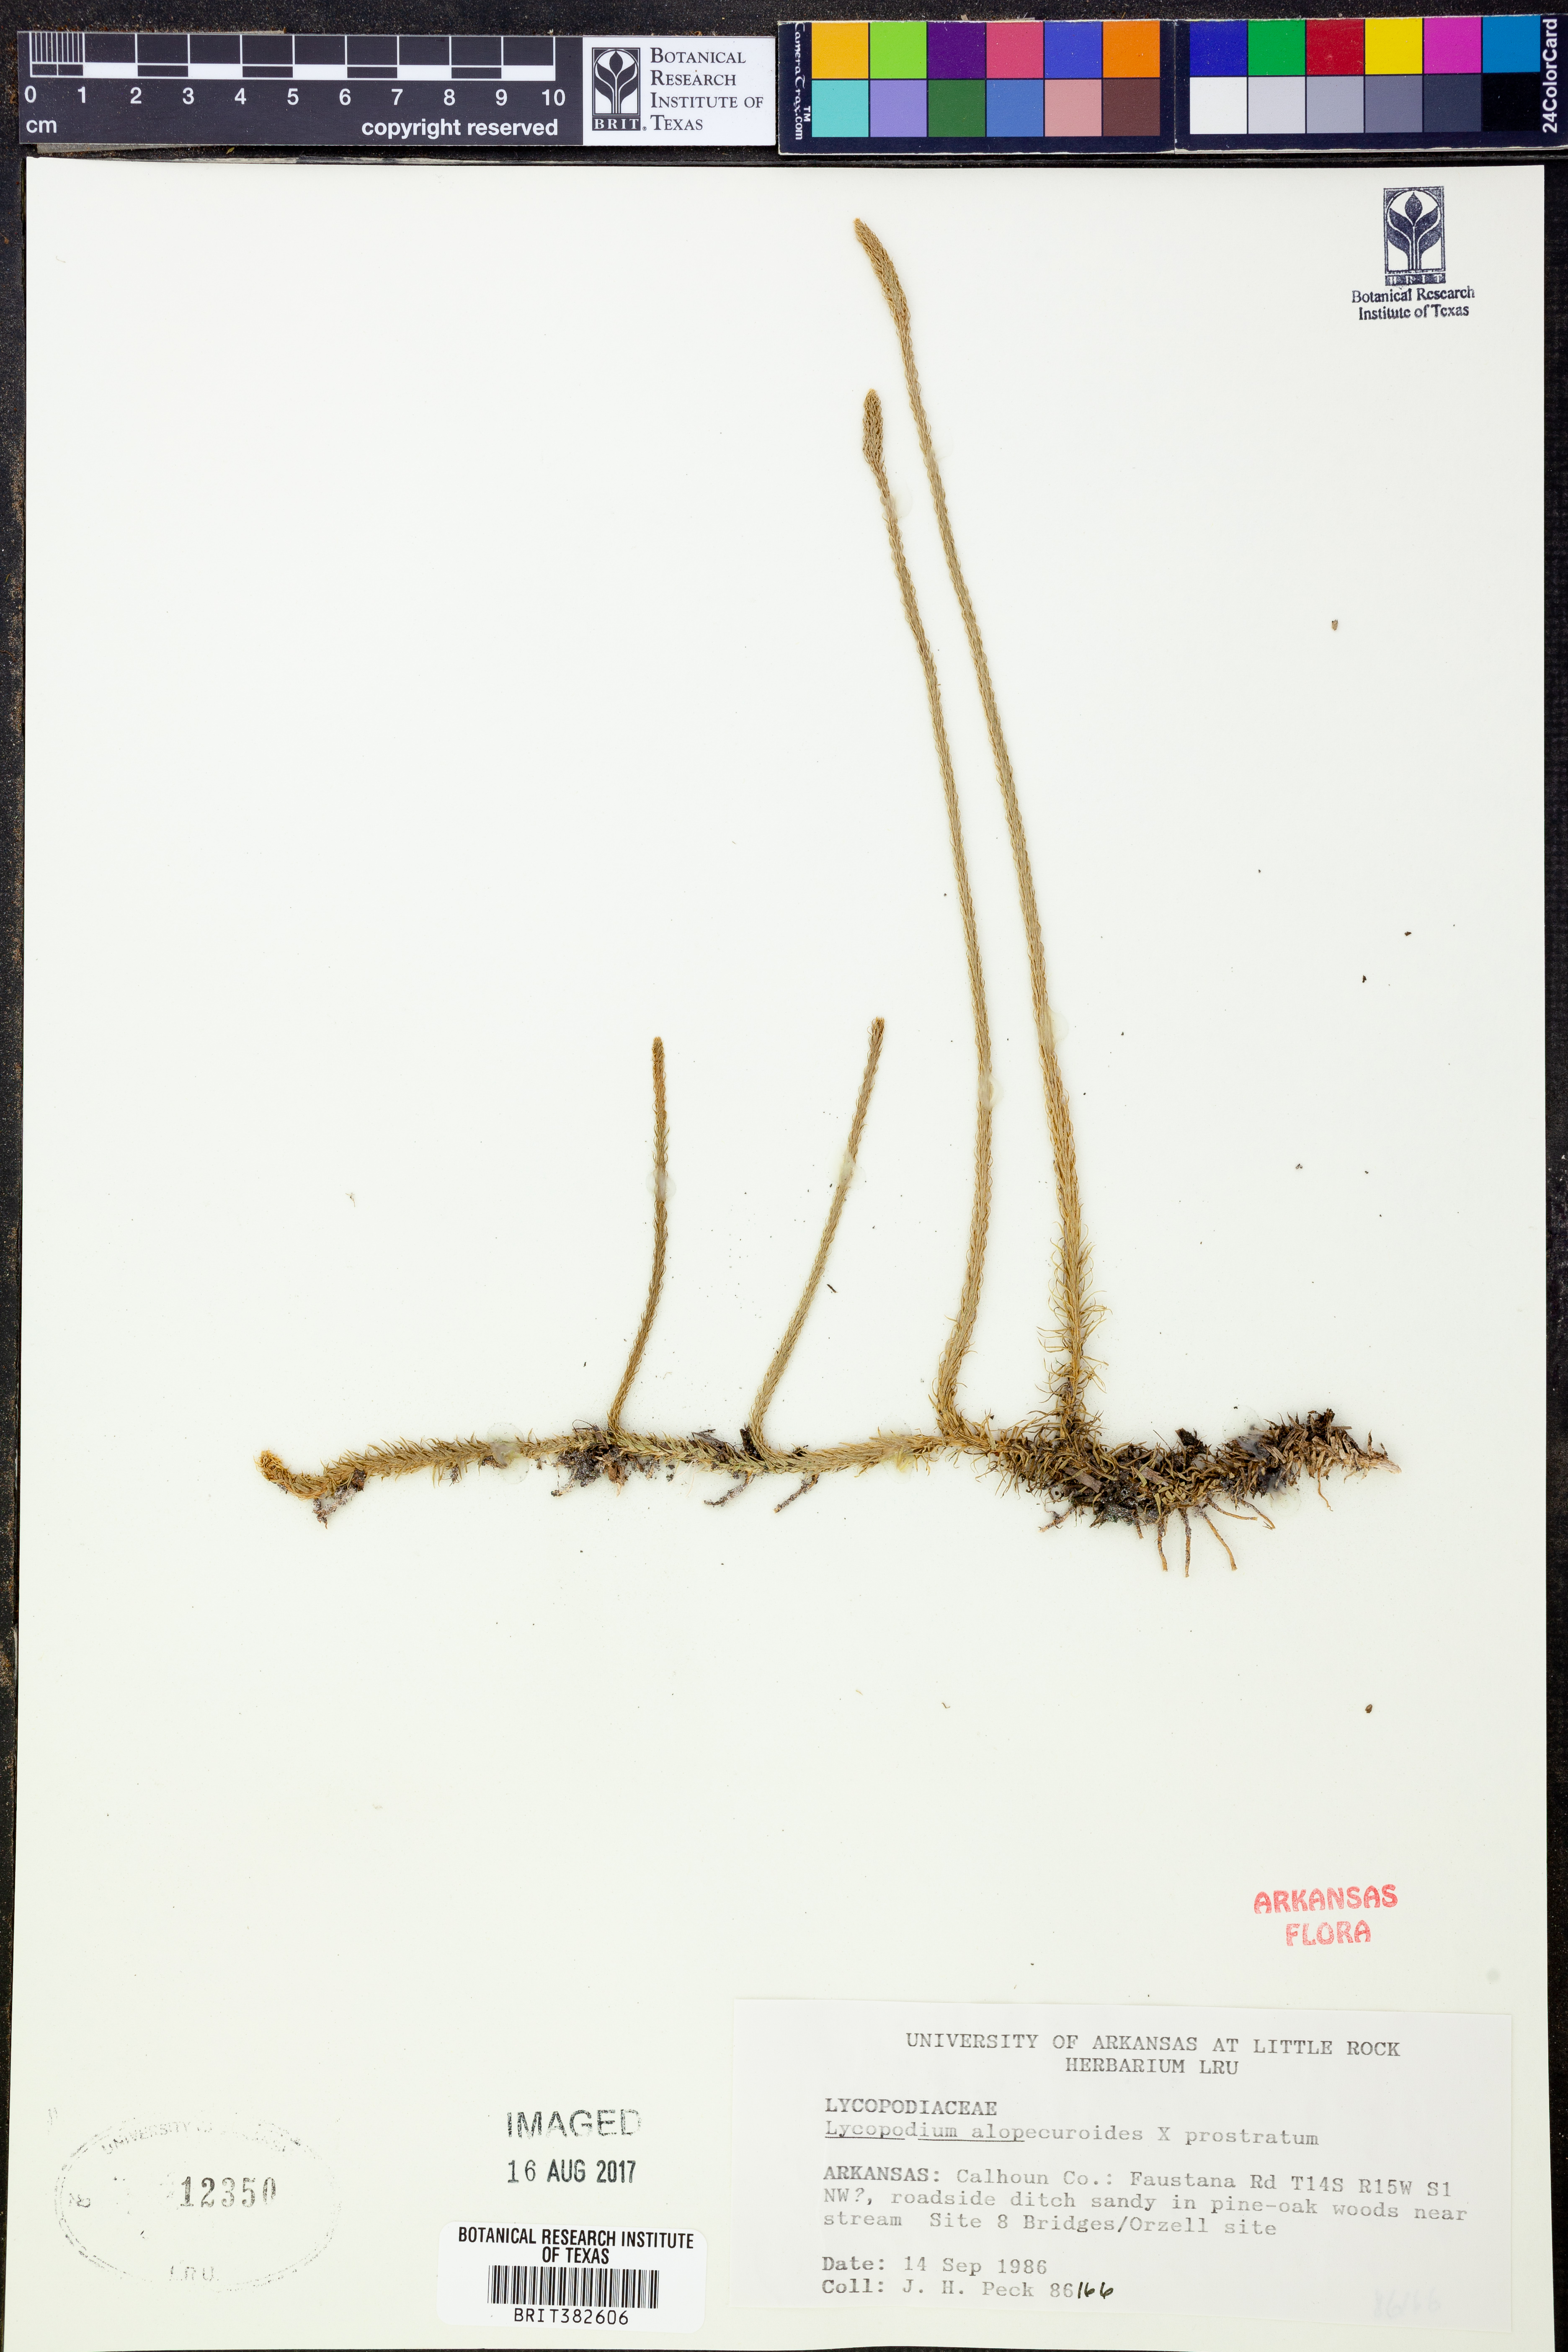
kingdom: Plantae
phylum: Tracheophyta
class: Lycopodiopsida
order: Lycopodiales
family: Lycopodiaceae
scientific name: Lycopodiaceae
